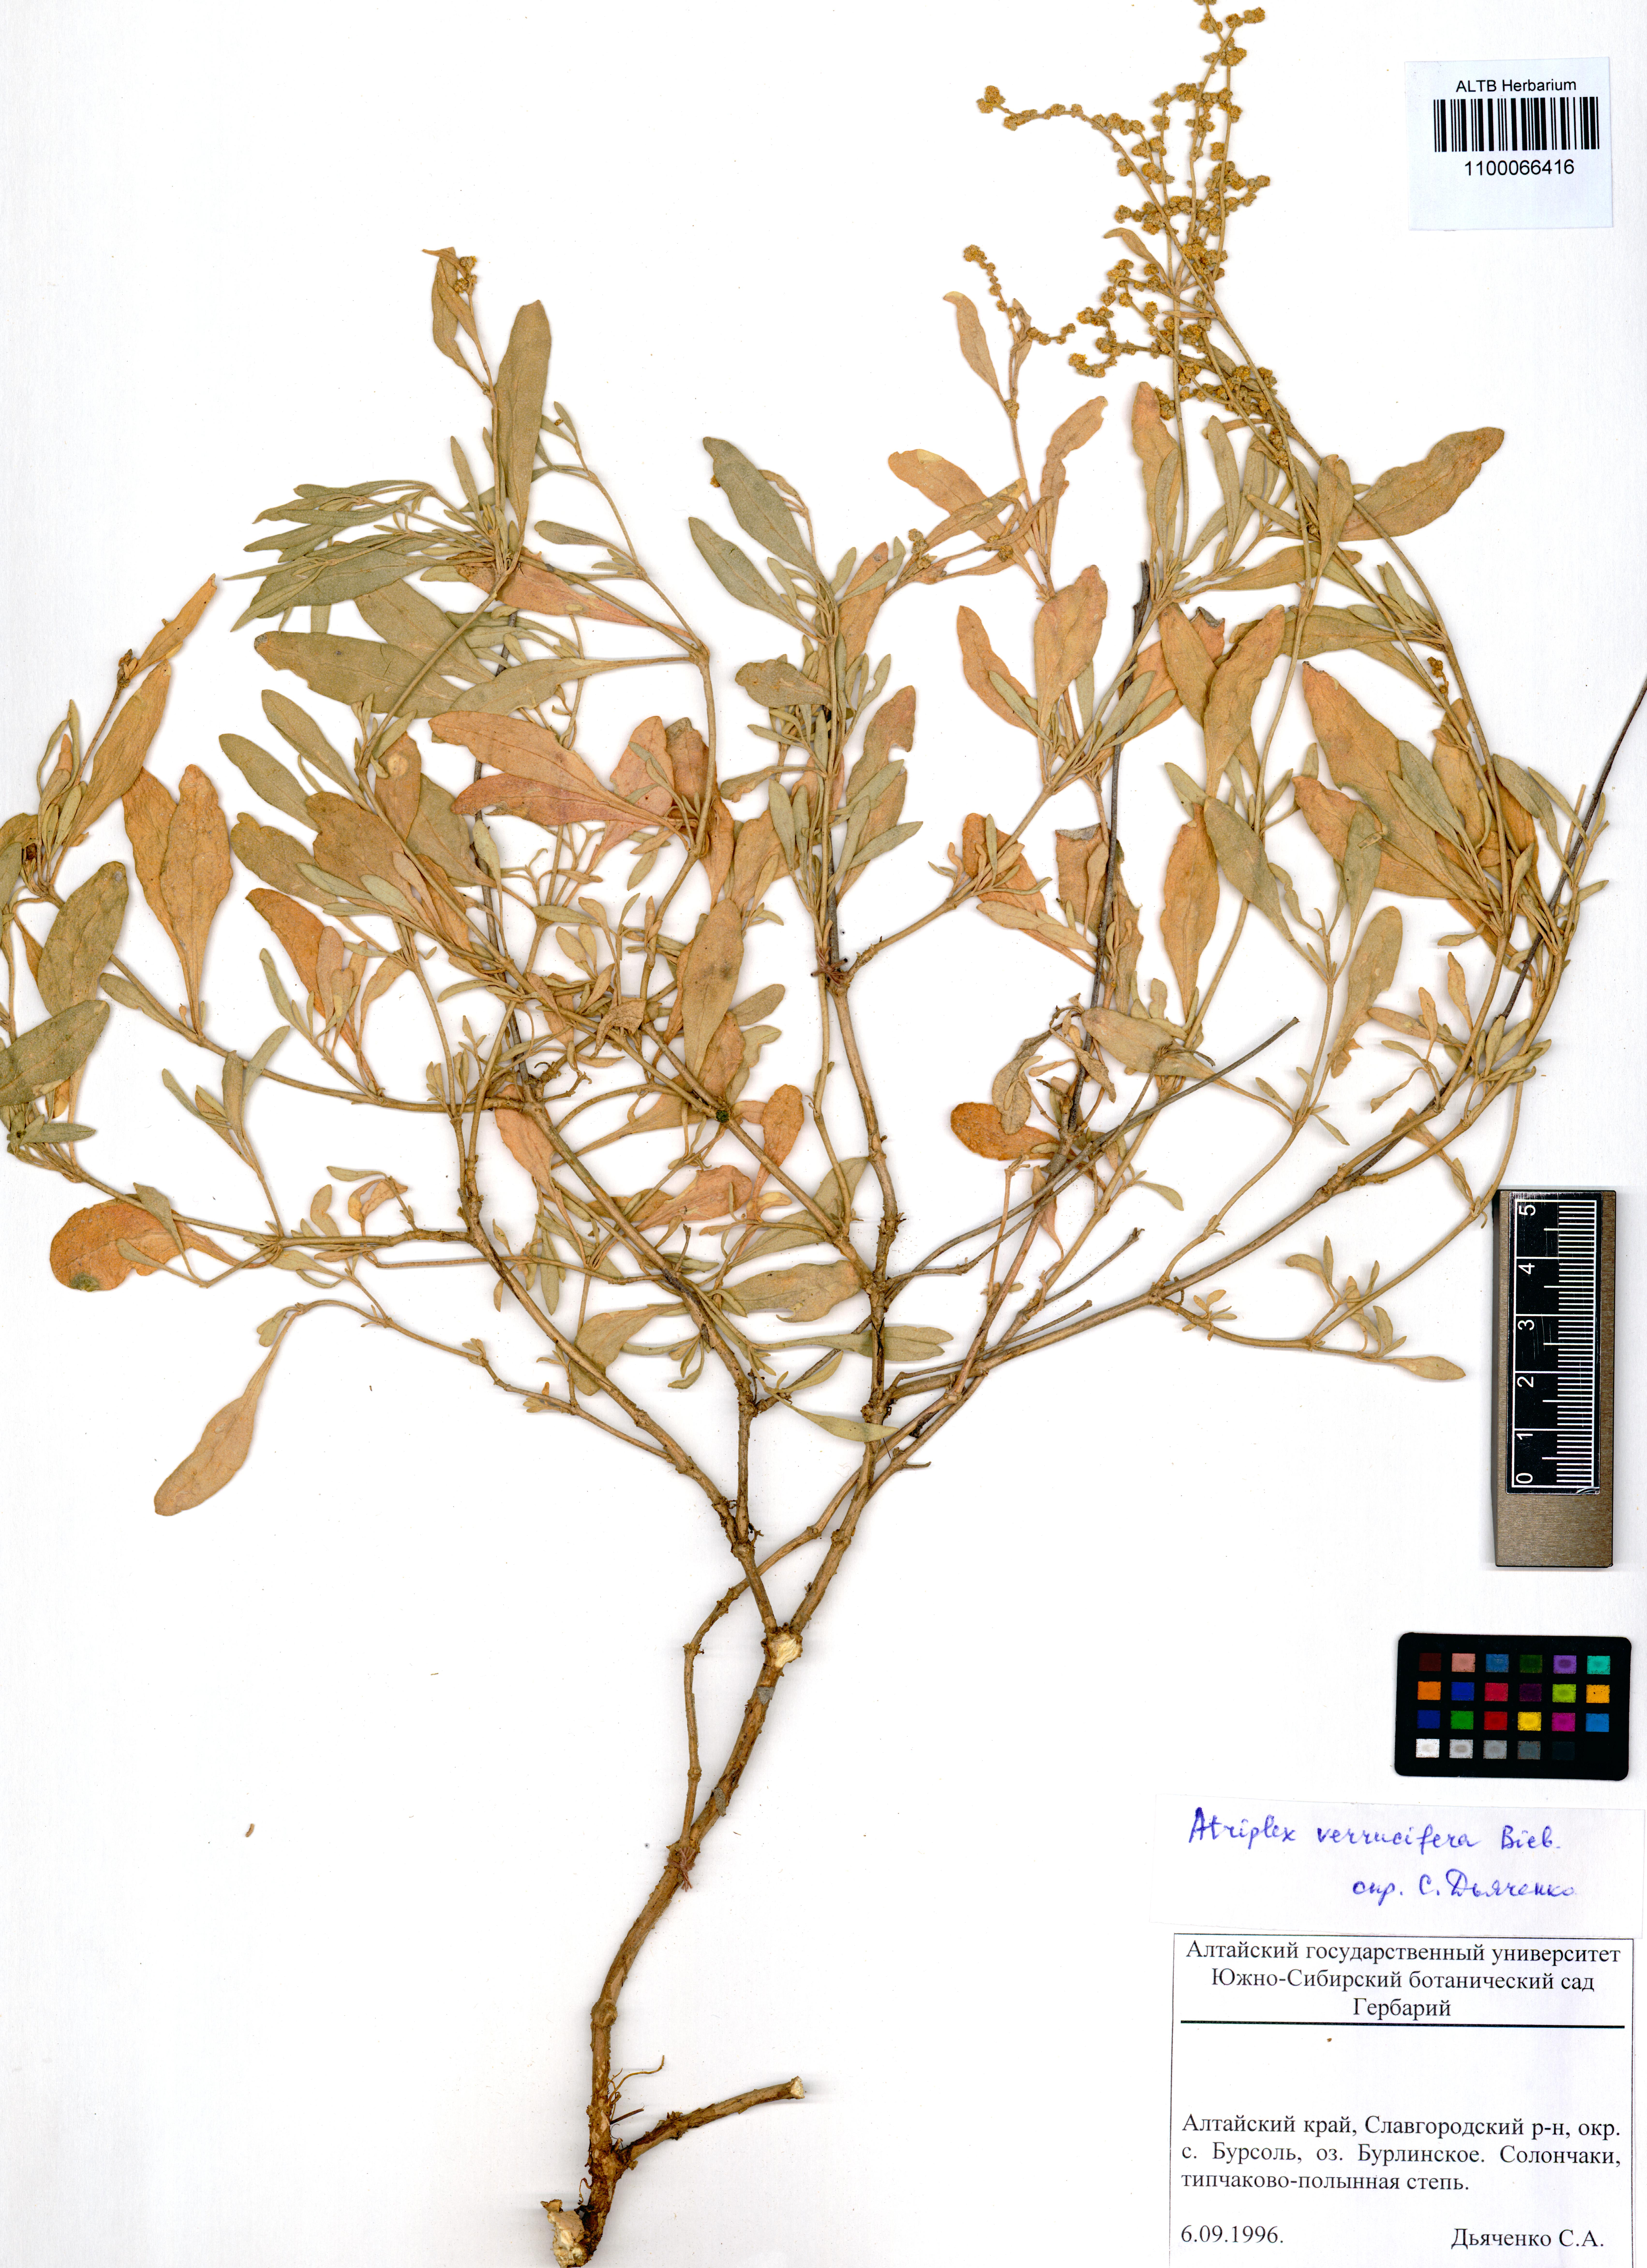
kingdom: Plantae
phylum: Tracheophyta
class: Magnoliopsida
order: Caryophyllales
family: Amaranthaceae
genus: Halimione
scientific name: Halimione verrucifera
